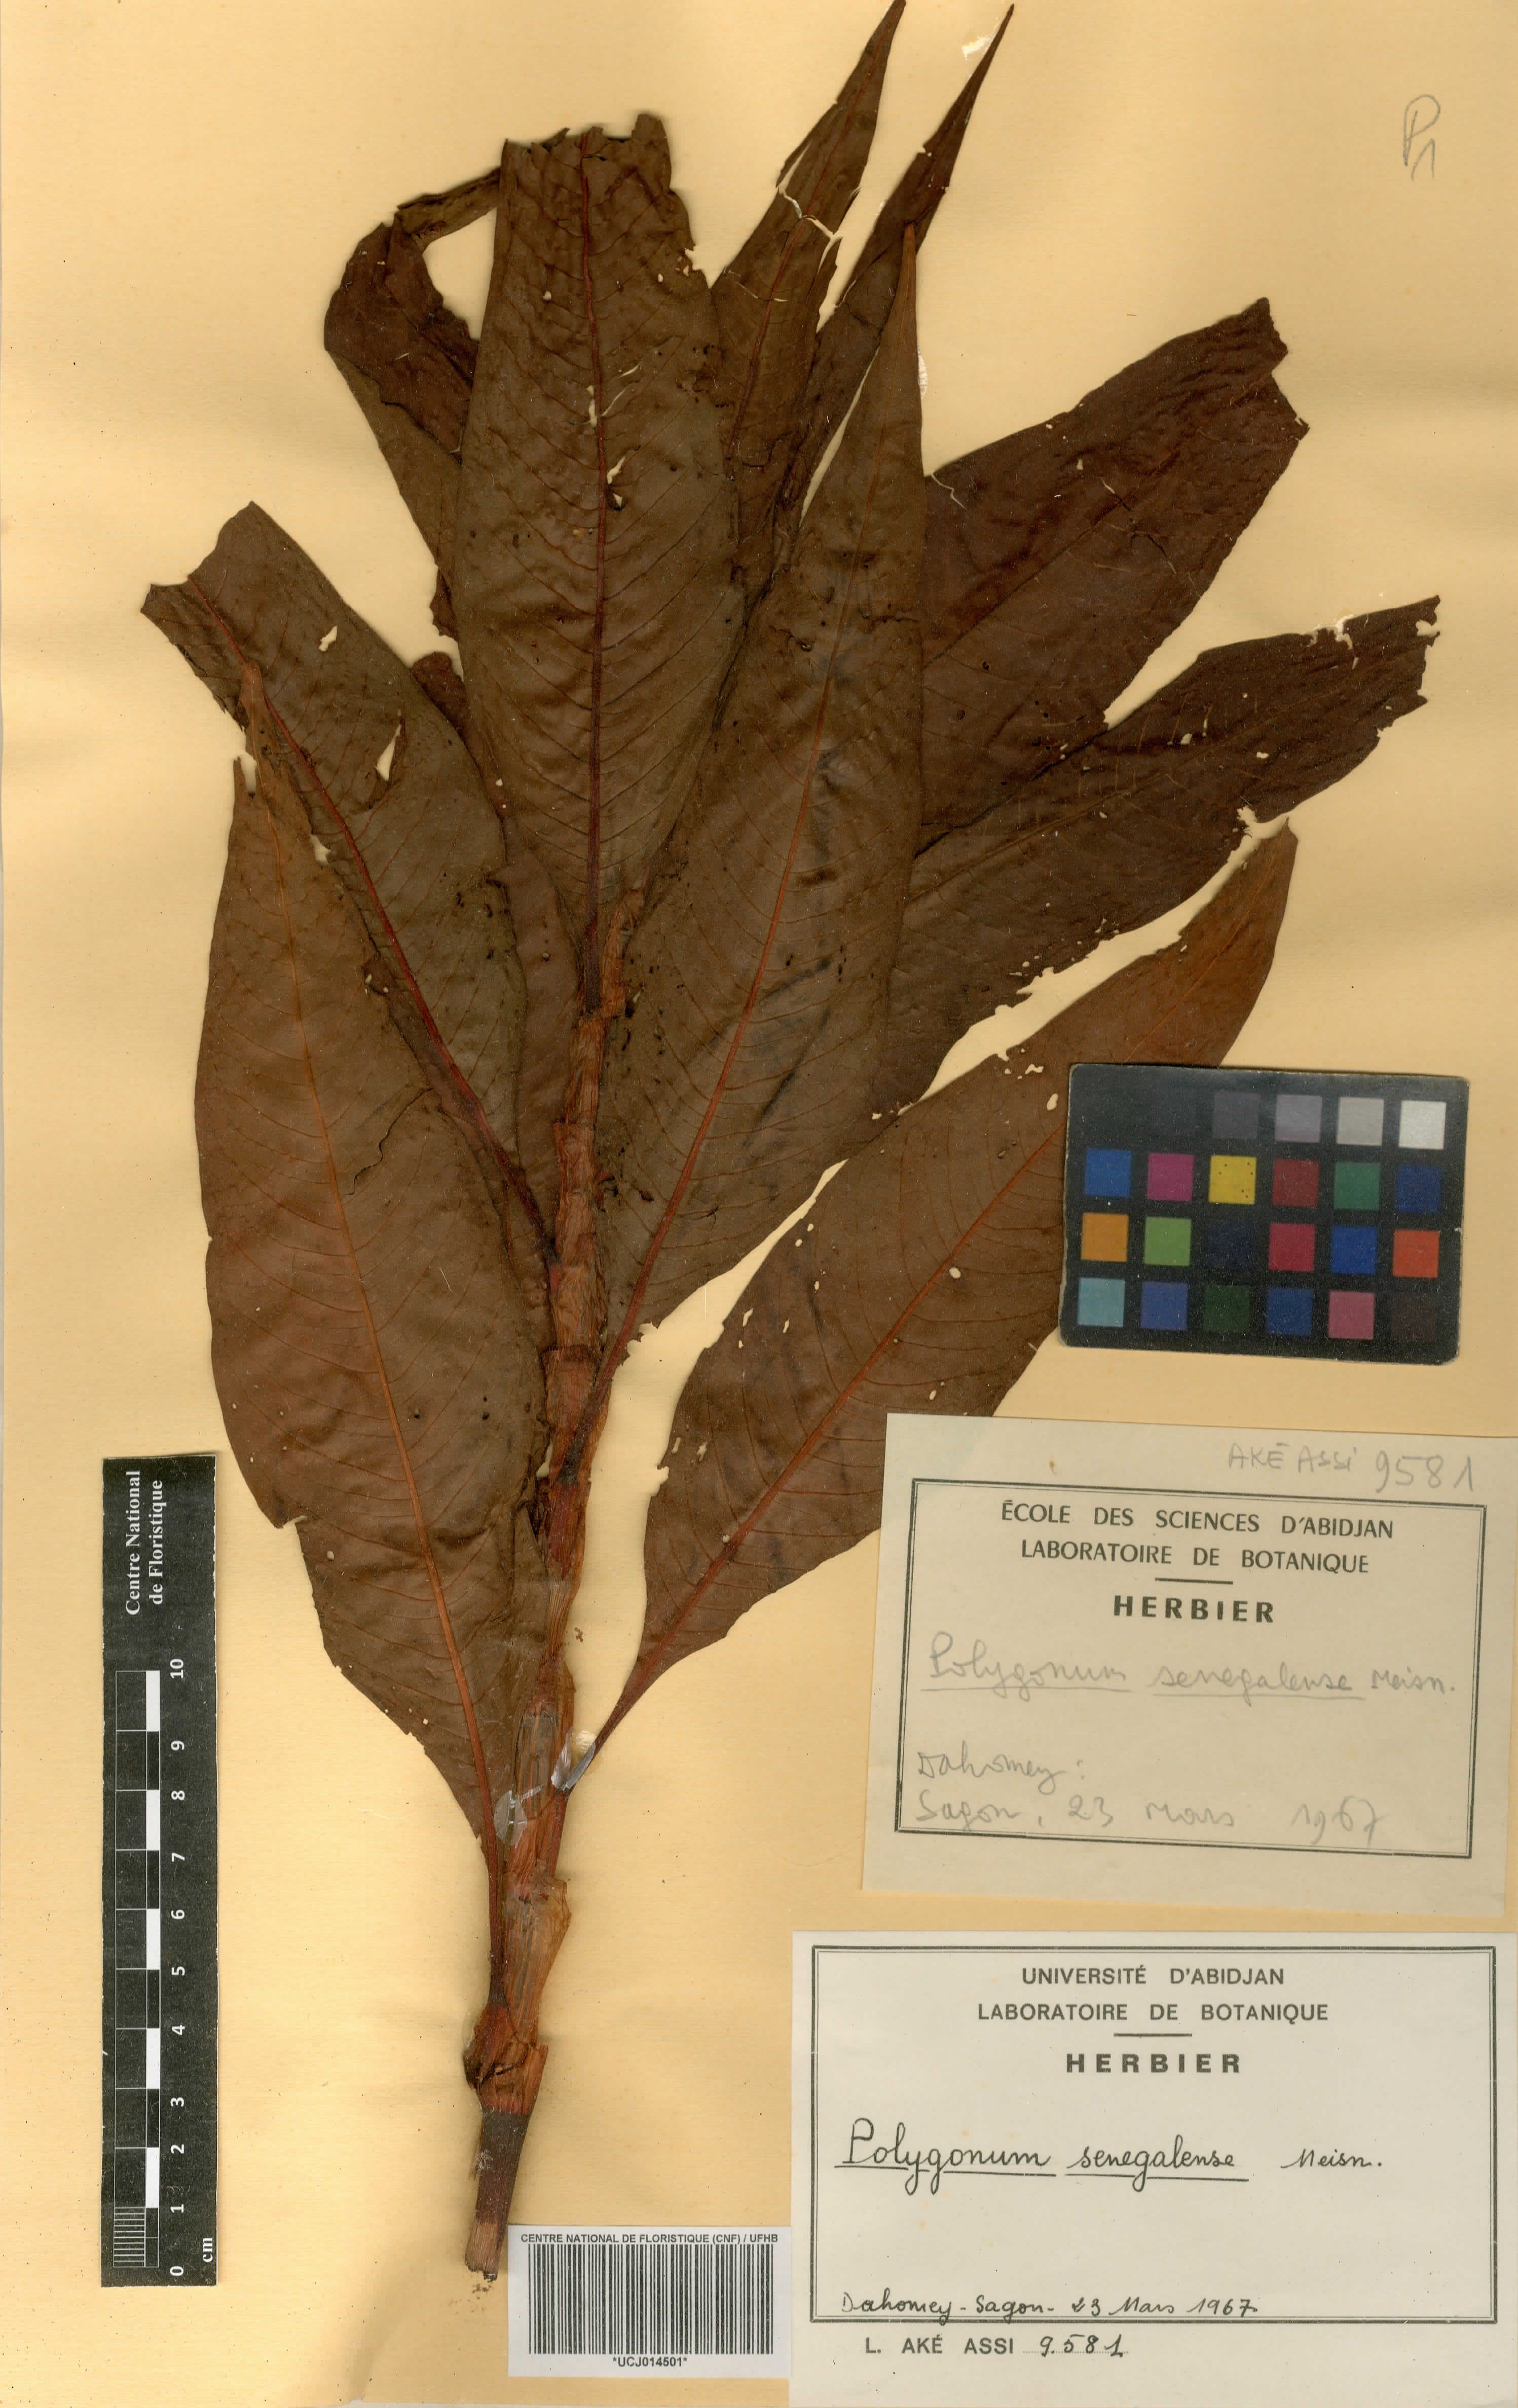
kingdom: Plantae
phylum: Tracheophyta
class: Magnoliopsida
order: Caryophyllales
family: Polygonaceae
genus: Persicaria
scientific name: Persicaria senegalensis
